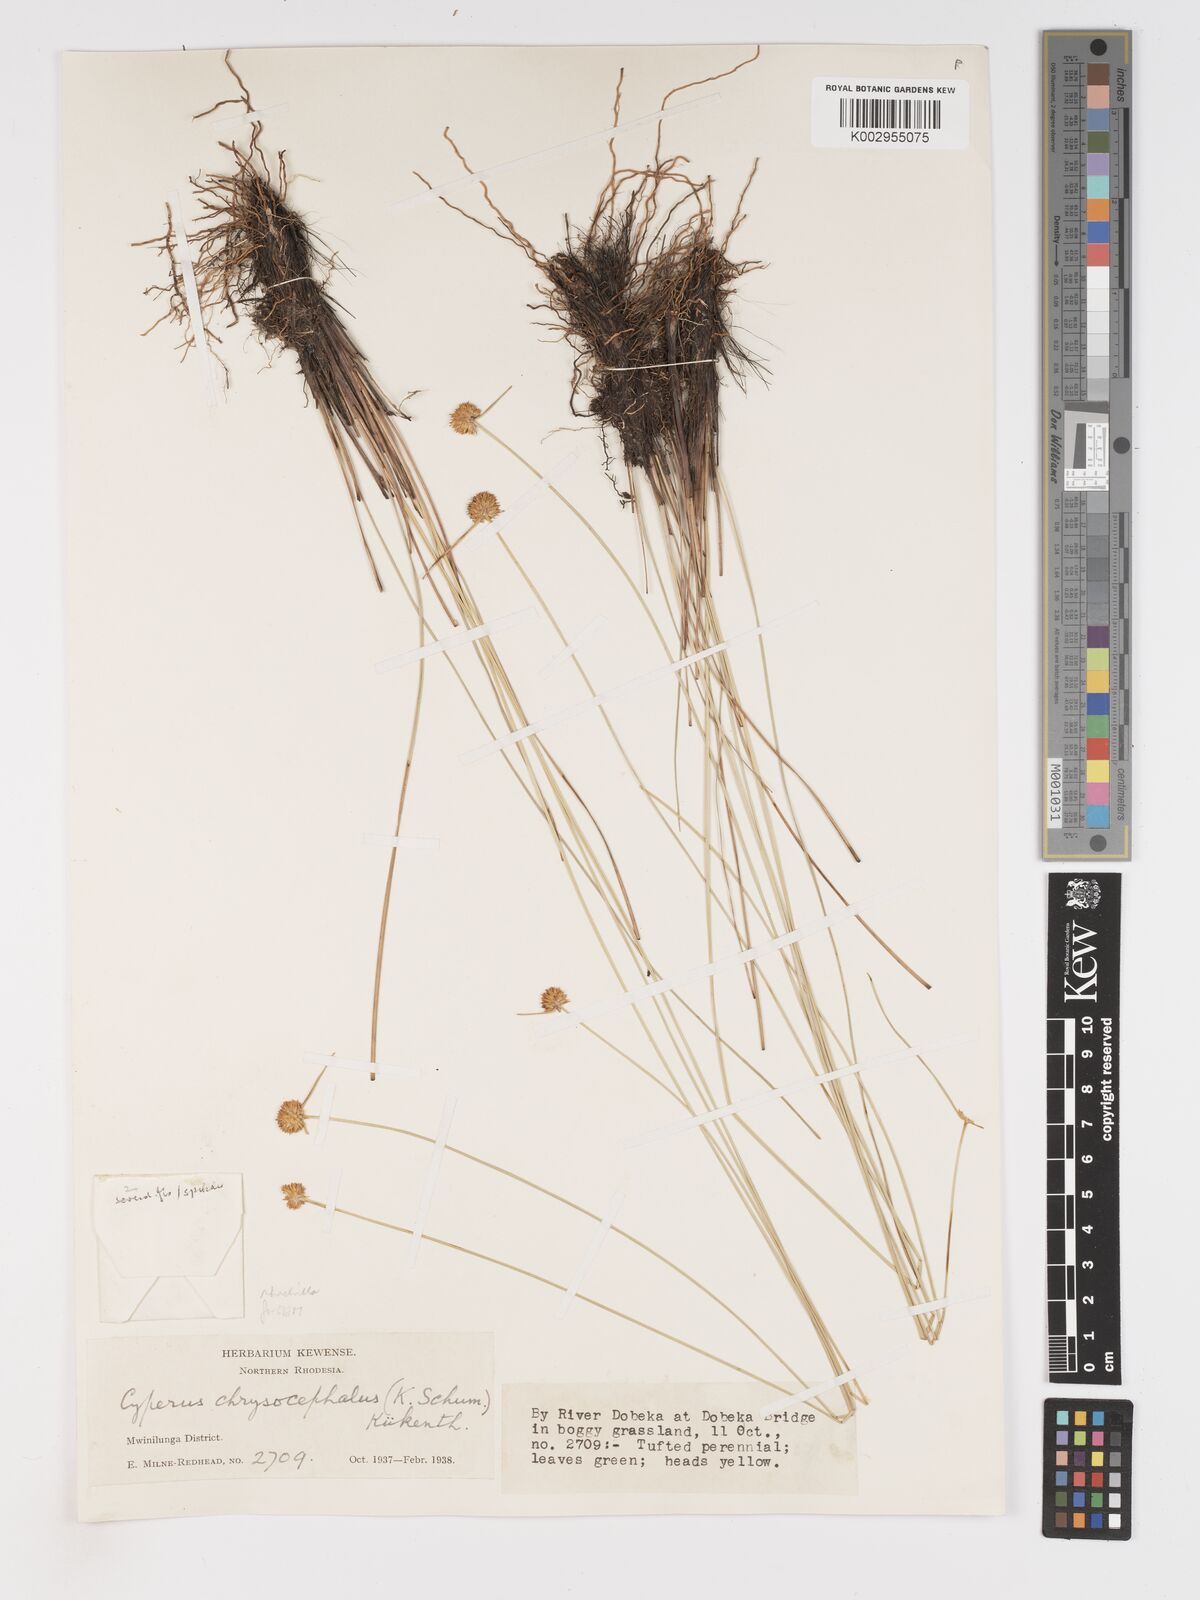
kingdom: Plantae
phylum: Tracheophyta
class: Liliopsida
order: Poales
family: Cyperaceae
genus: Cyperus
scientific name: Cyperus remotus
